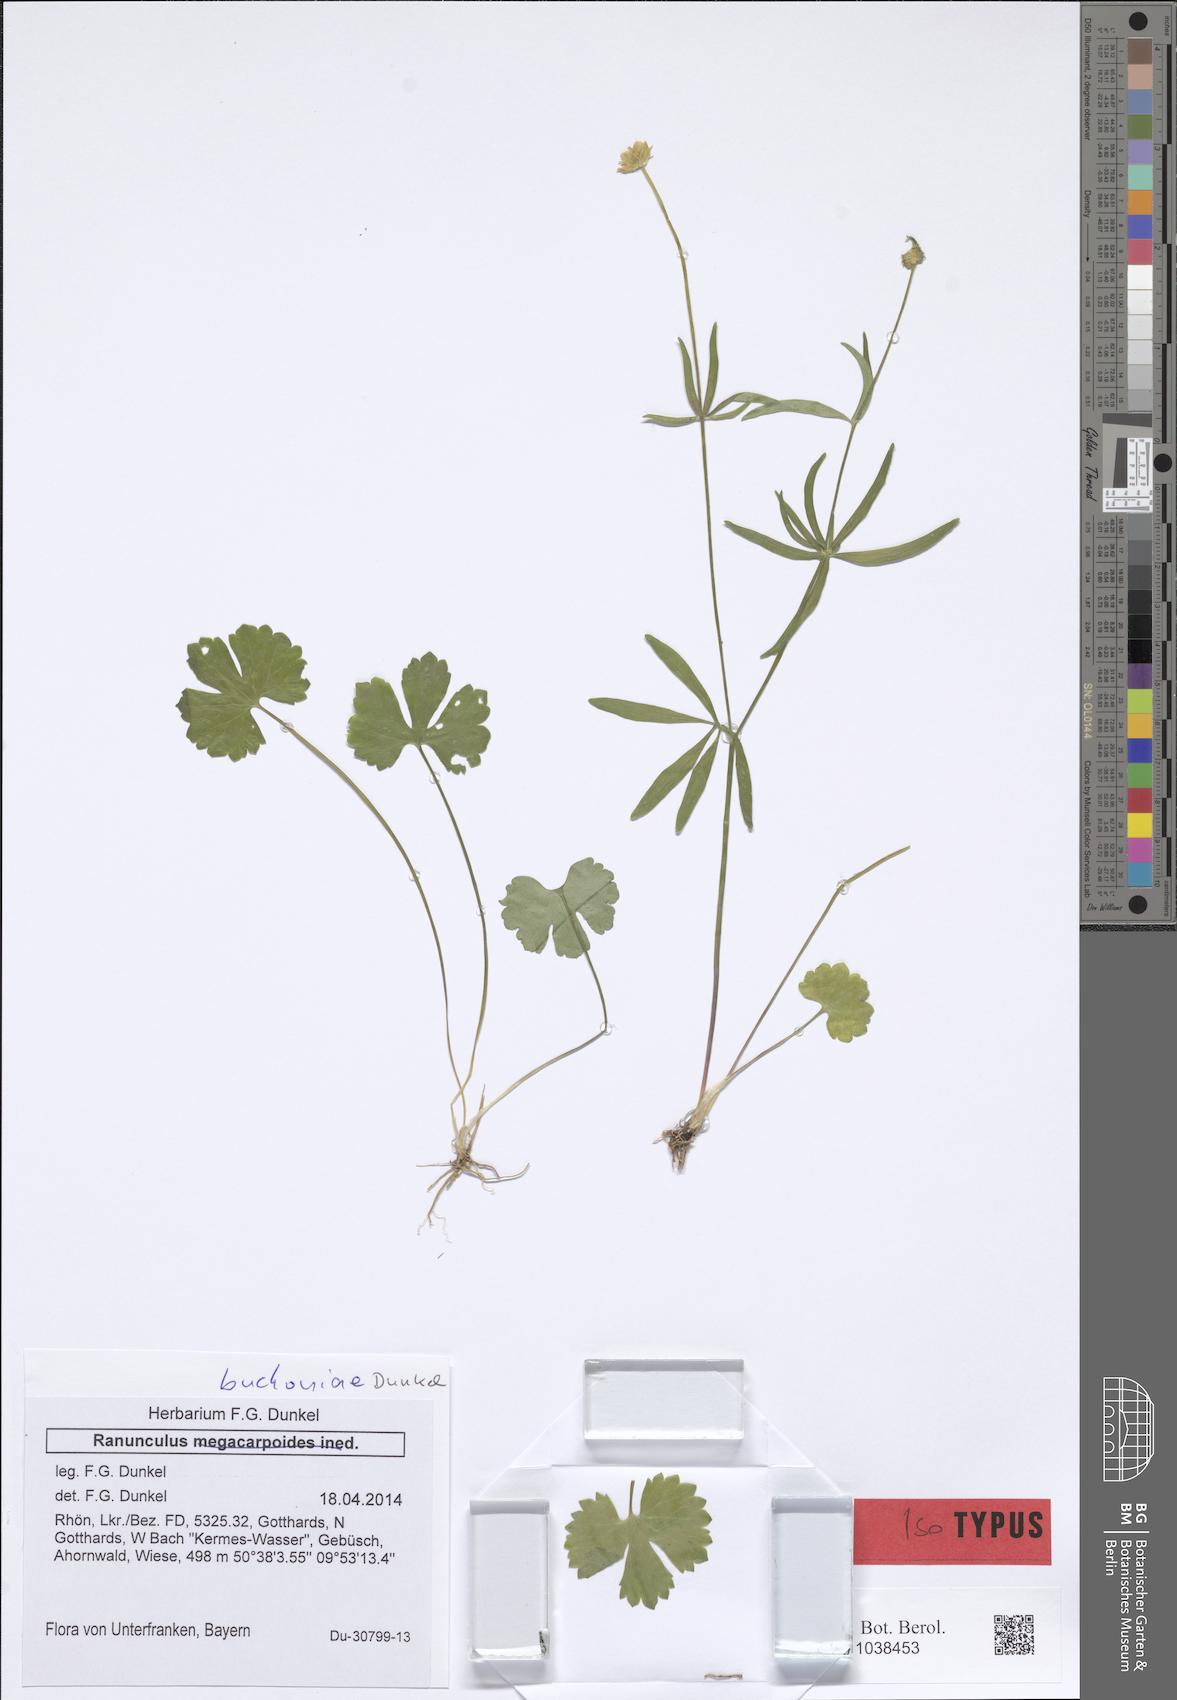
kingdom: Plantae
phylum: Tracheophyta
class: Magnoliopsida
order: Ranunculales
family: Ranunculaceae
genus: Ranunculus
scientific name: Ranunculus buchoniae
